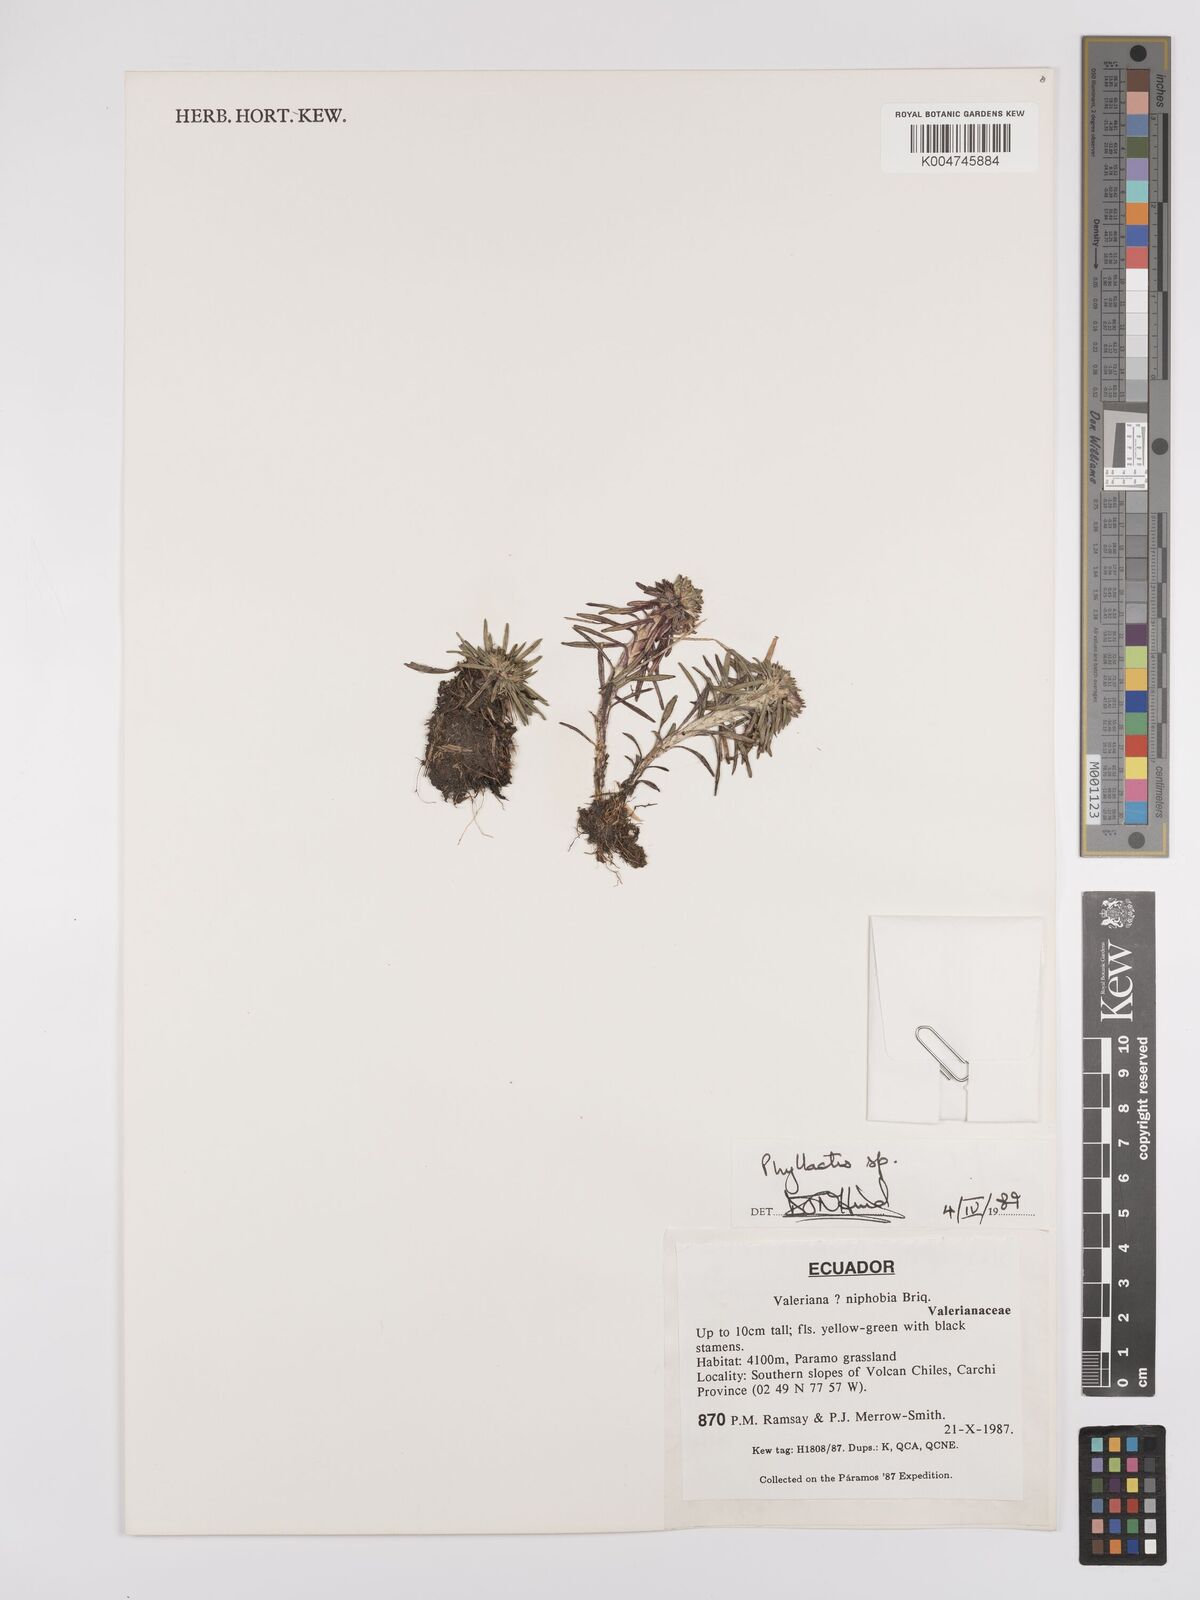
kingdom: Plantae
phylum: Tracheophyta
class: Magnoliopsida
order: Asterales
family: Asteraceae
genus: Phyllactis
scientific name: Phyllactis
